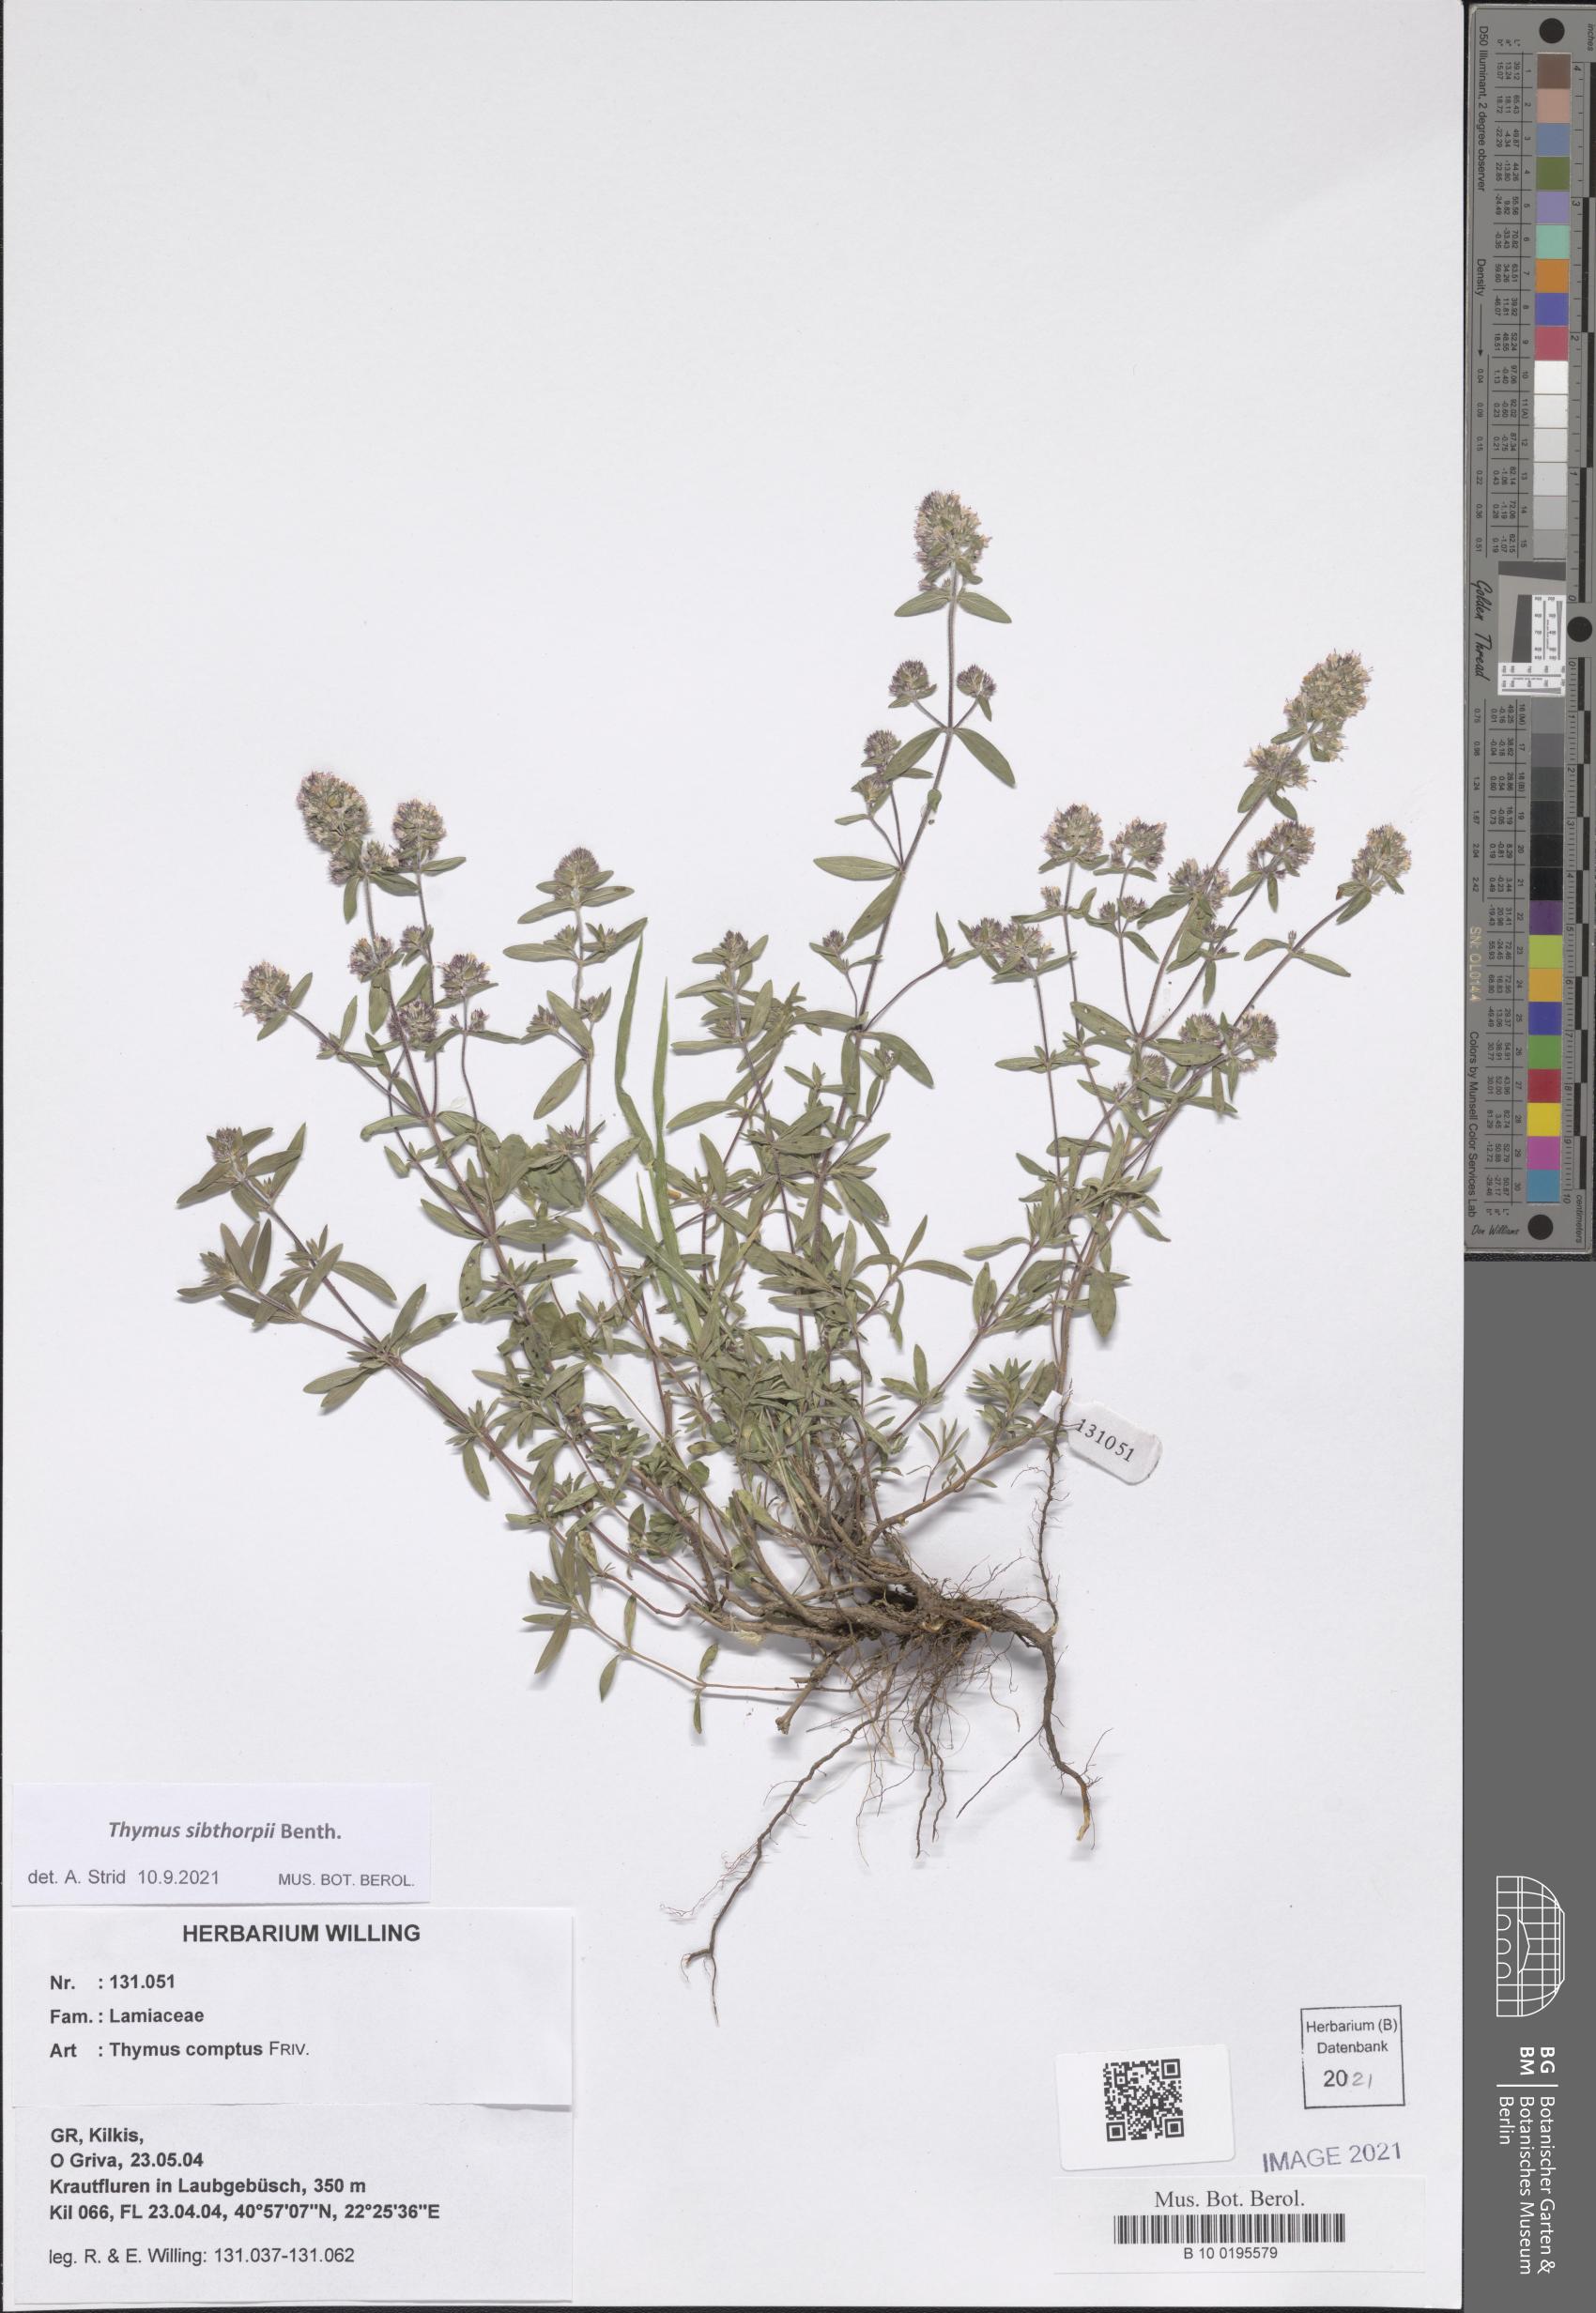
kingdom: Plantae
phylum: Tracheophyta
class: Magnoliopsida
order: Lamiales
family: Lamiaceae
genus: Thymus
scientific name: Thymus sibthorpii
